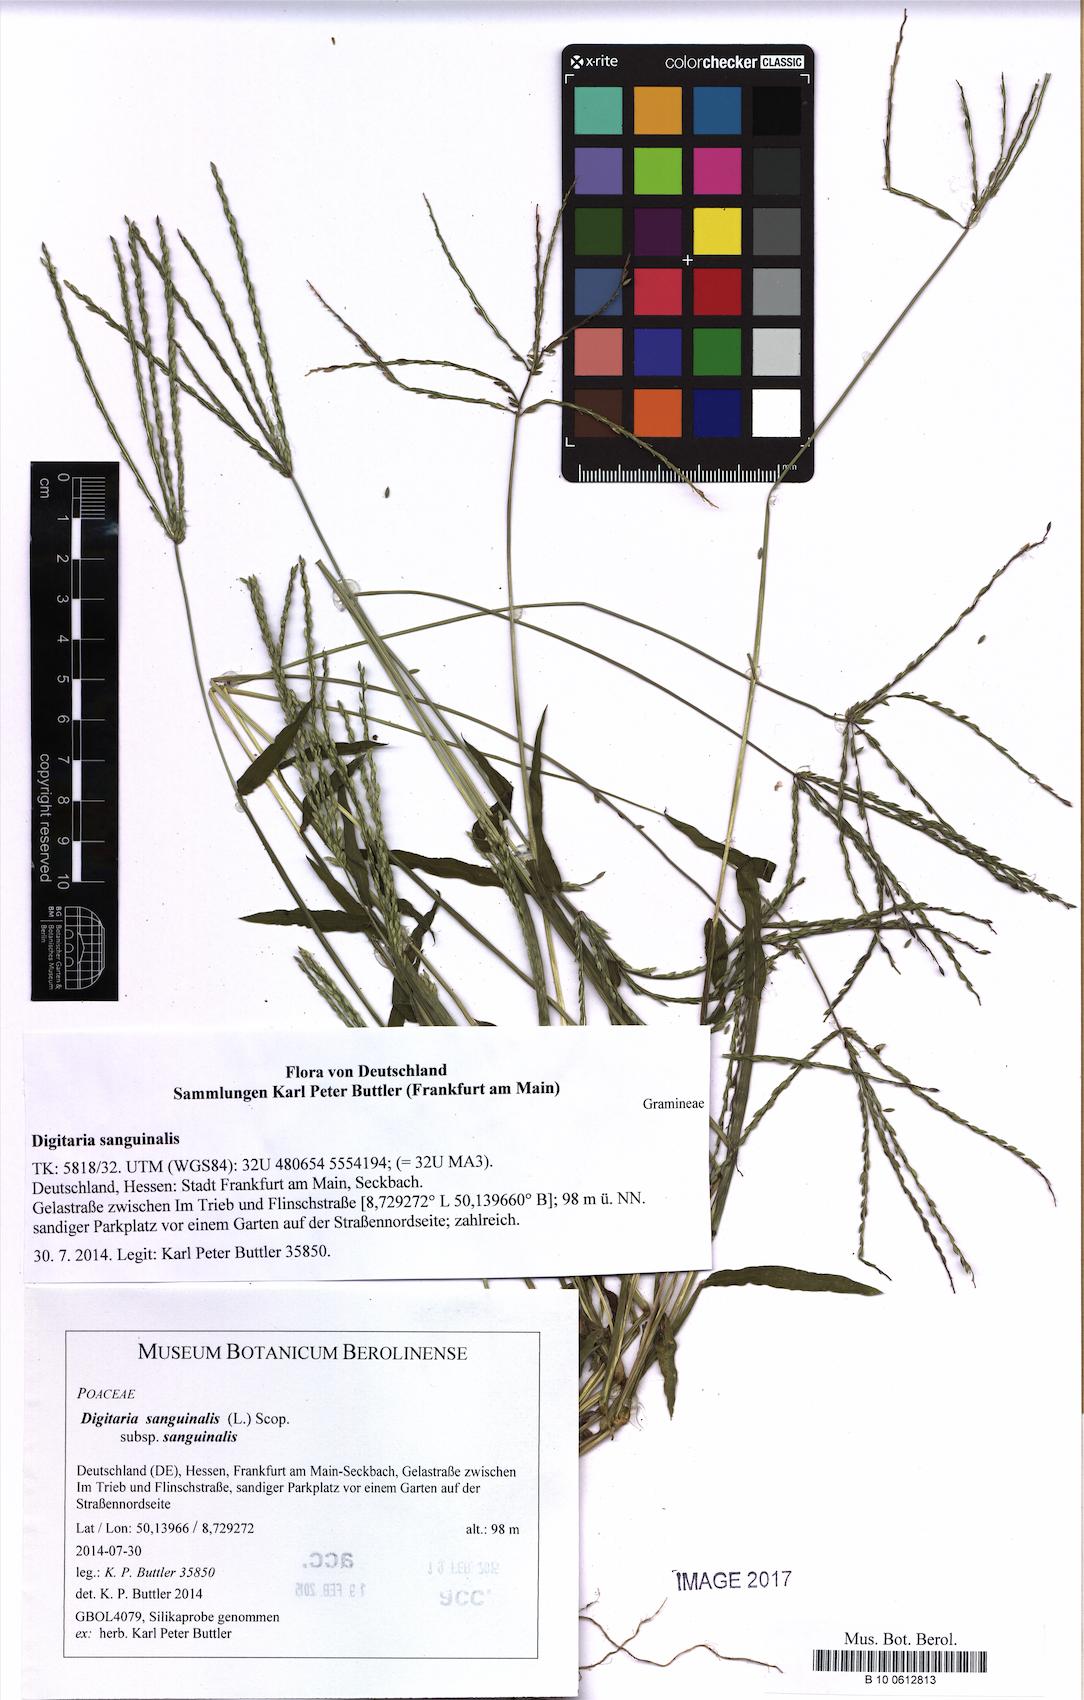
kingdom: Plantae
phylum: Tracheophyta
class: Liliopsida
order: Poales
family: Poaceae
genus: Digitaria
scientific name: Digitaria sanguinalis
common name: Hairy crabgrass
